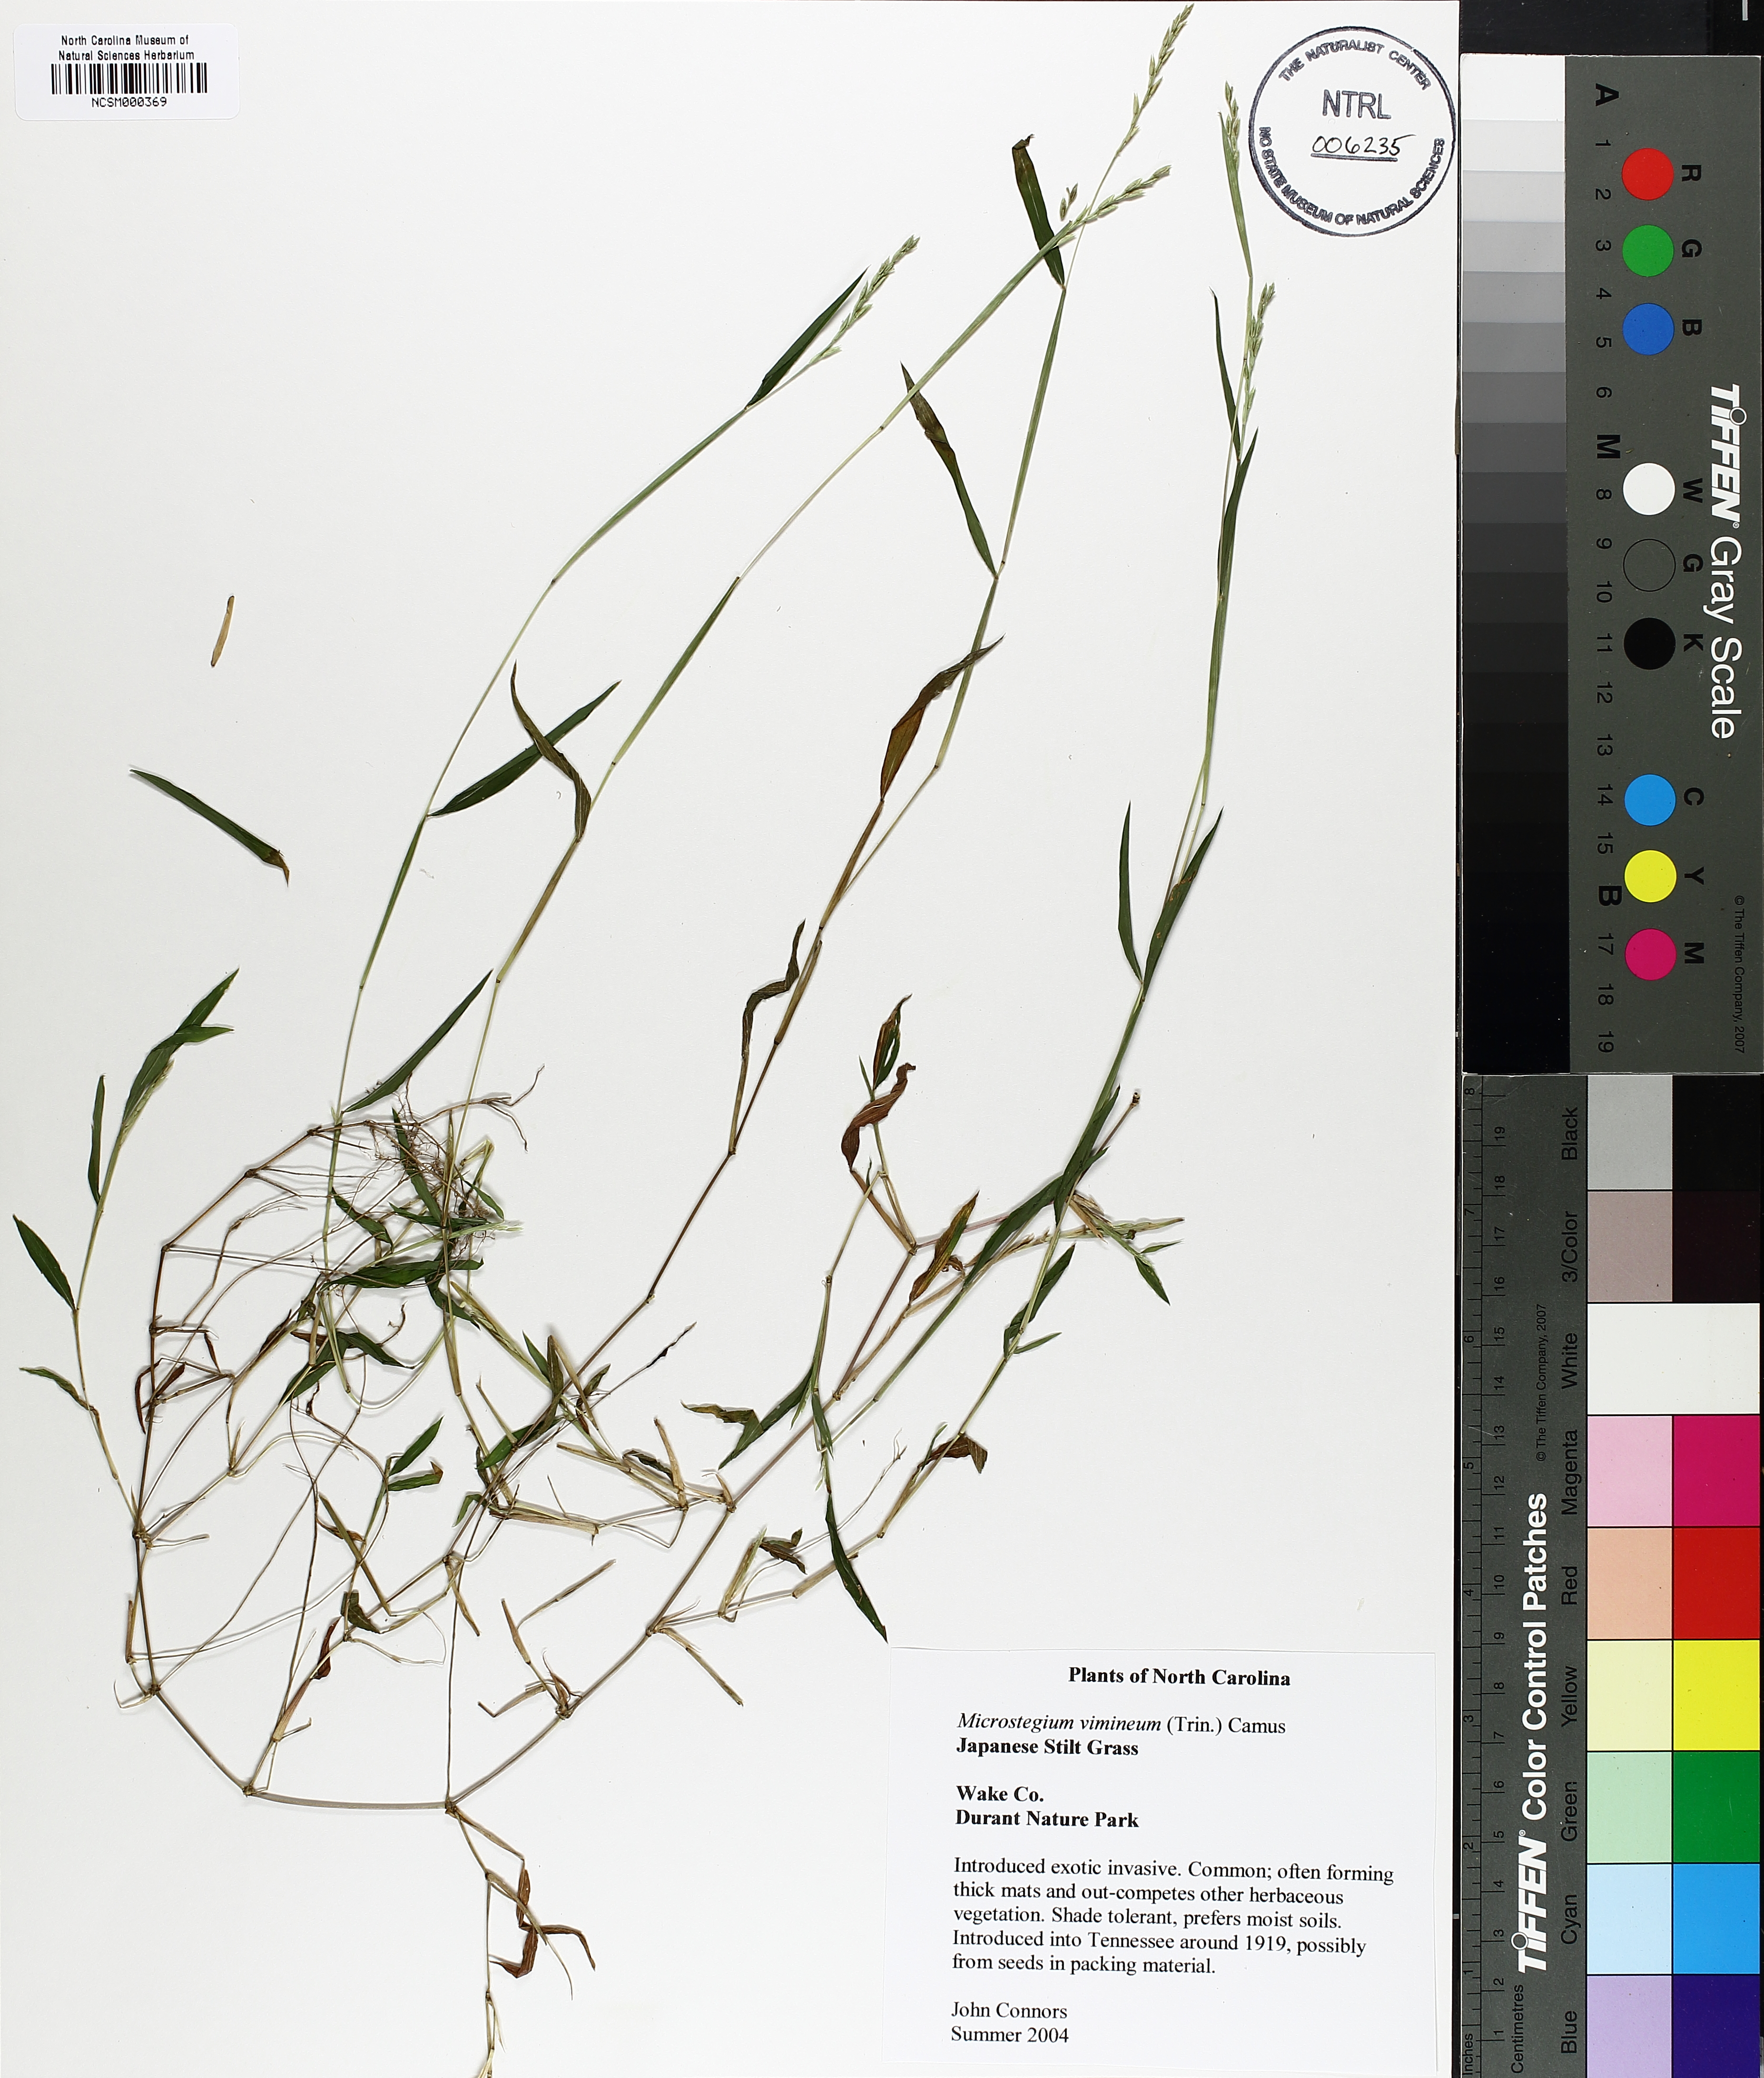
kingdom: Plantae
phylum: Tracheophyta
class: Liliopsida
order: Poales
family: Poaceae
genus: Microstegium
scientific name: Microstegium vimineum
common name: Japanese stiltgrass
